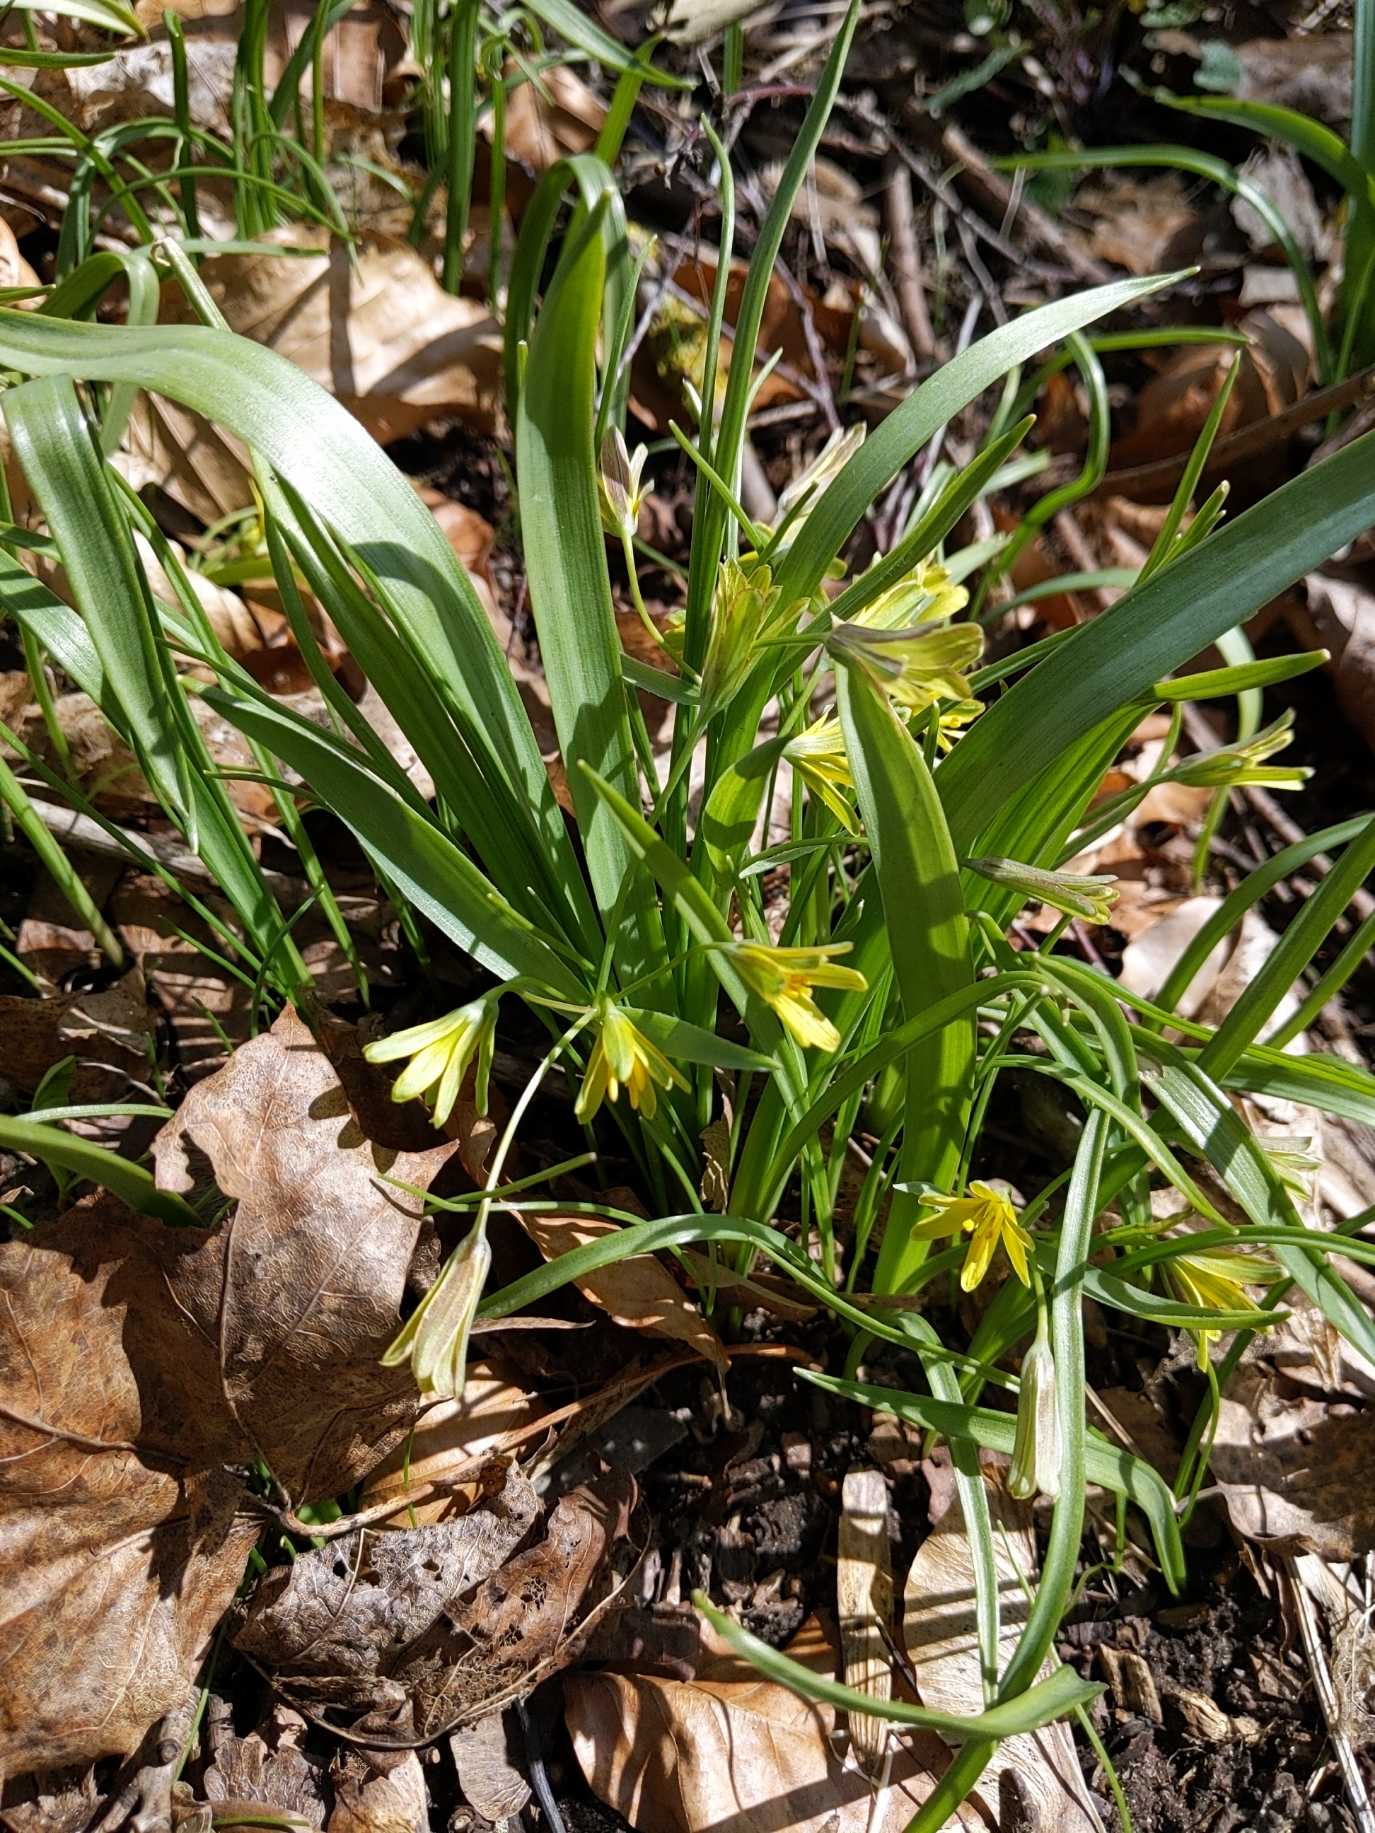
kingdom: Plantae
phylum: Tracheophyta
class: Liliopsida
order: Liliales
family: Liliaceae
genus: Gagea
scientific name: Gagea lutea
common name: Almindelig guldstjerne
